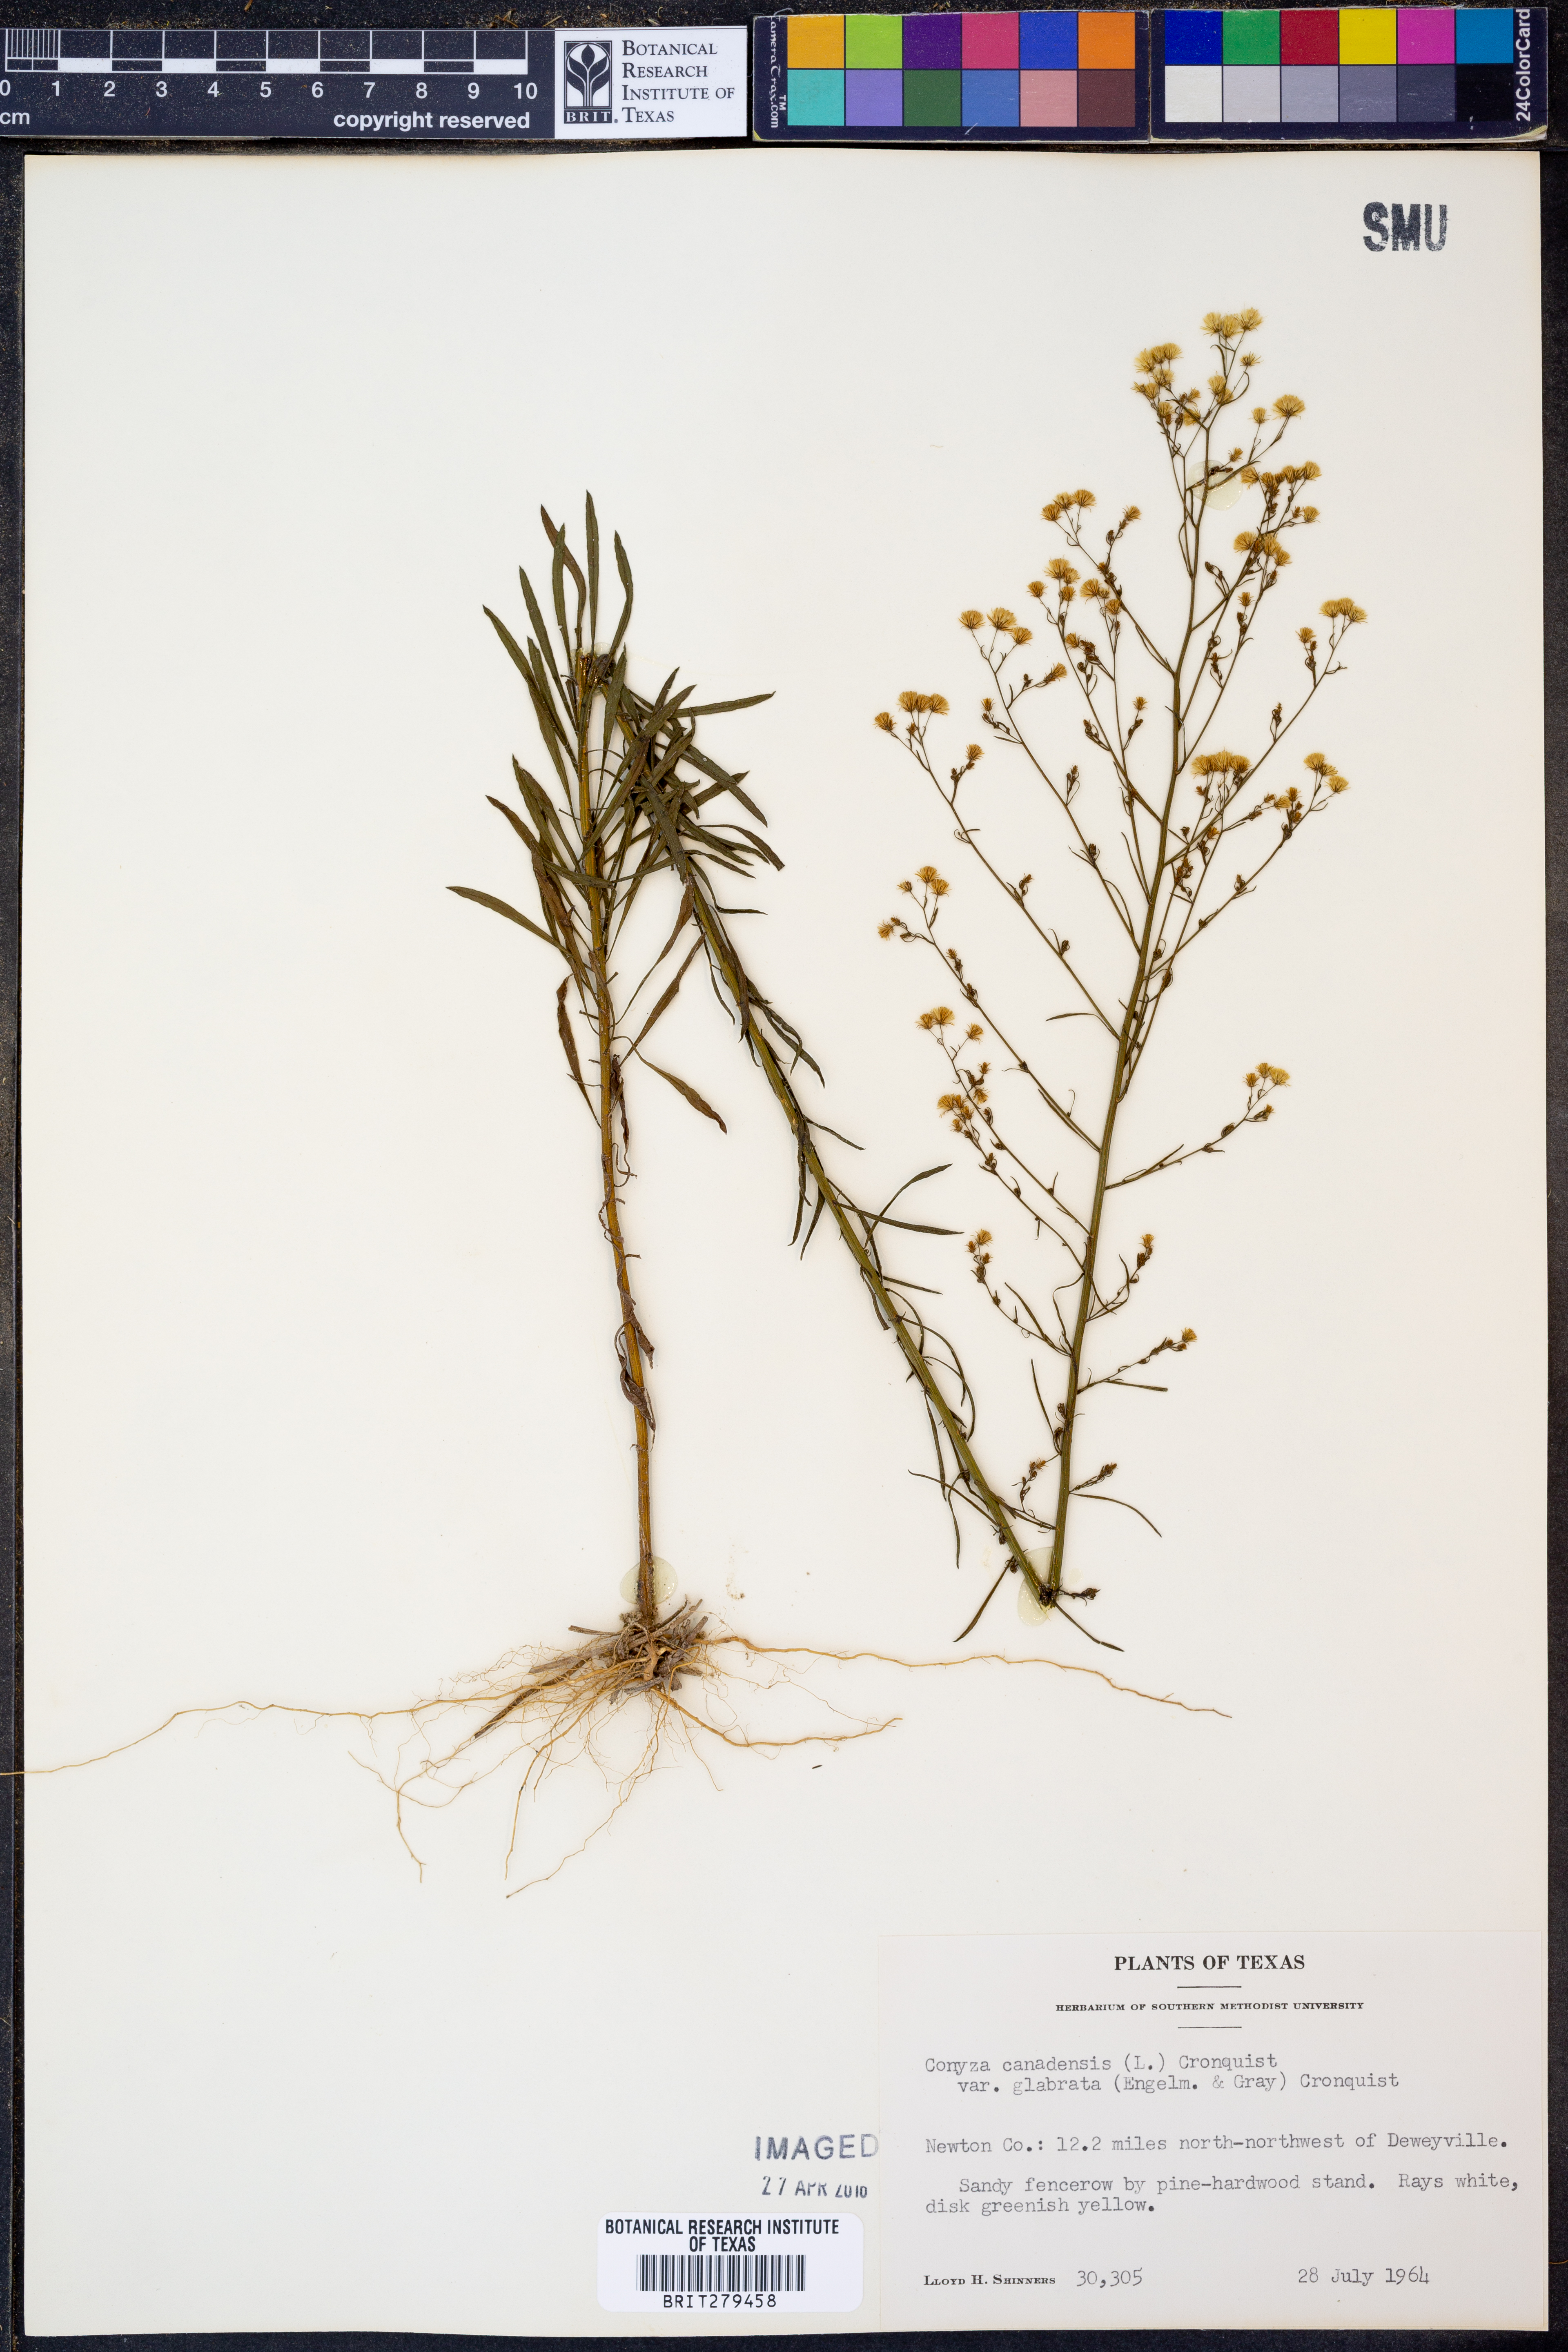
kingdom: Plantae
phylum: Tracheophyta
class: Magnoliopsida
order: Asterales
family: Asteraceae
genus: Erigeron
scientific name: Erigeron canadensis
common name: Canadian fleabane
